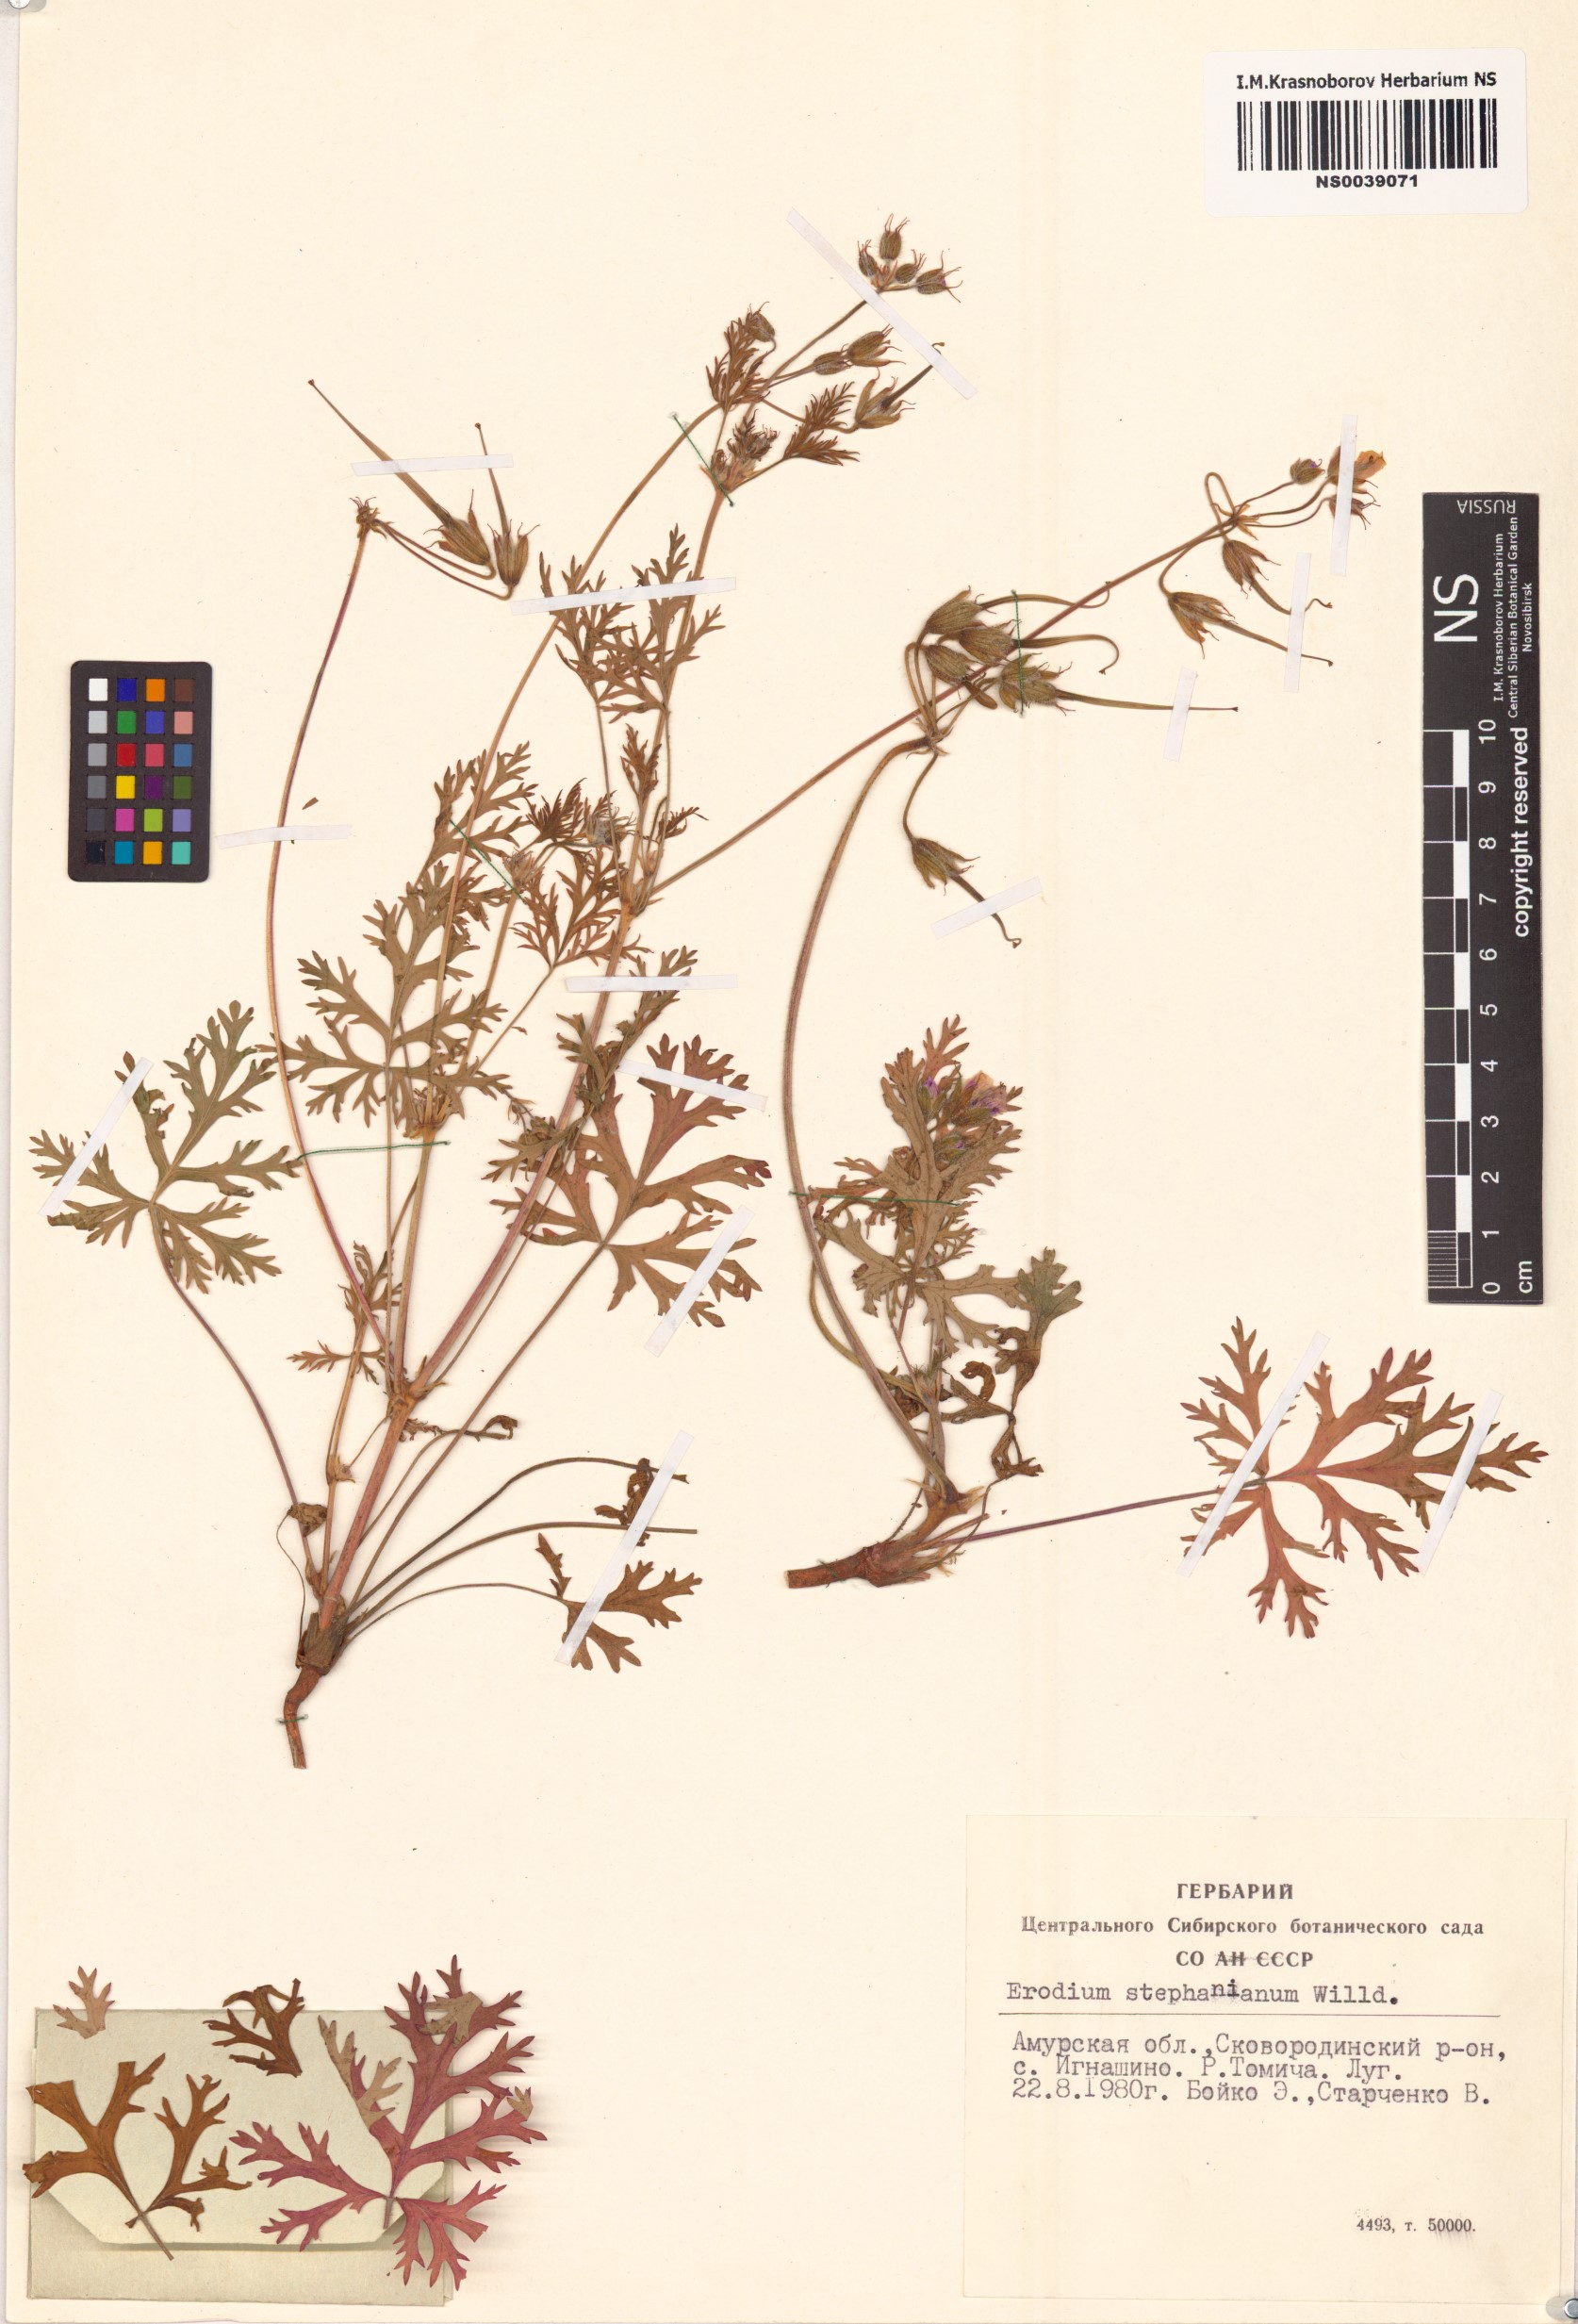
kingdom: Plantae
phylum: Tracheophyta
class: Magnoliopsida
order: Geraniales
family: Geraniaceae
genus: Erodium
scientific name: Erodium stephanianum
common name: Stephen's stork's bill
